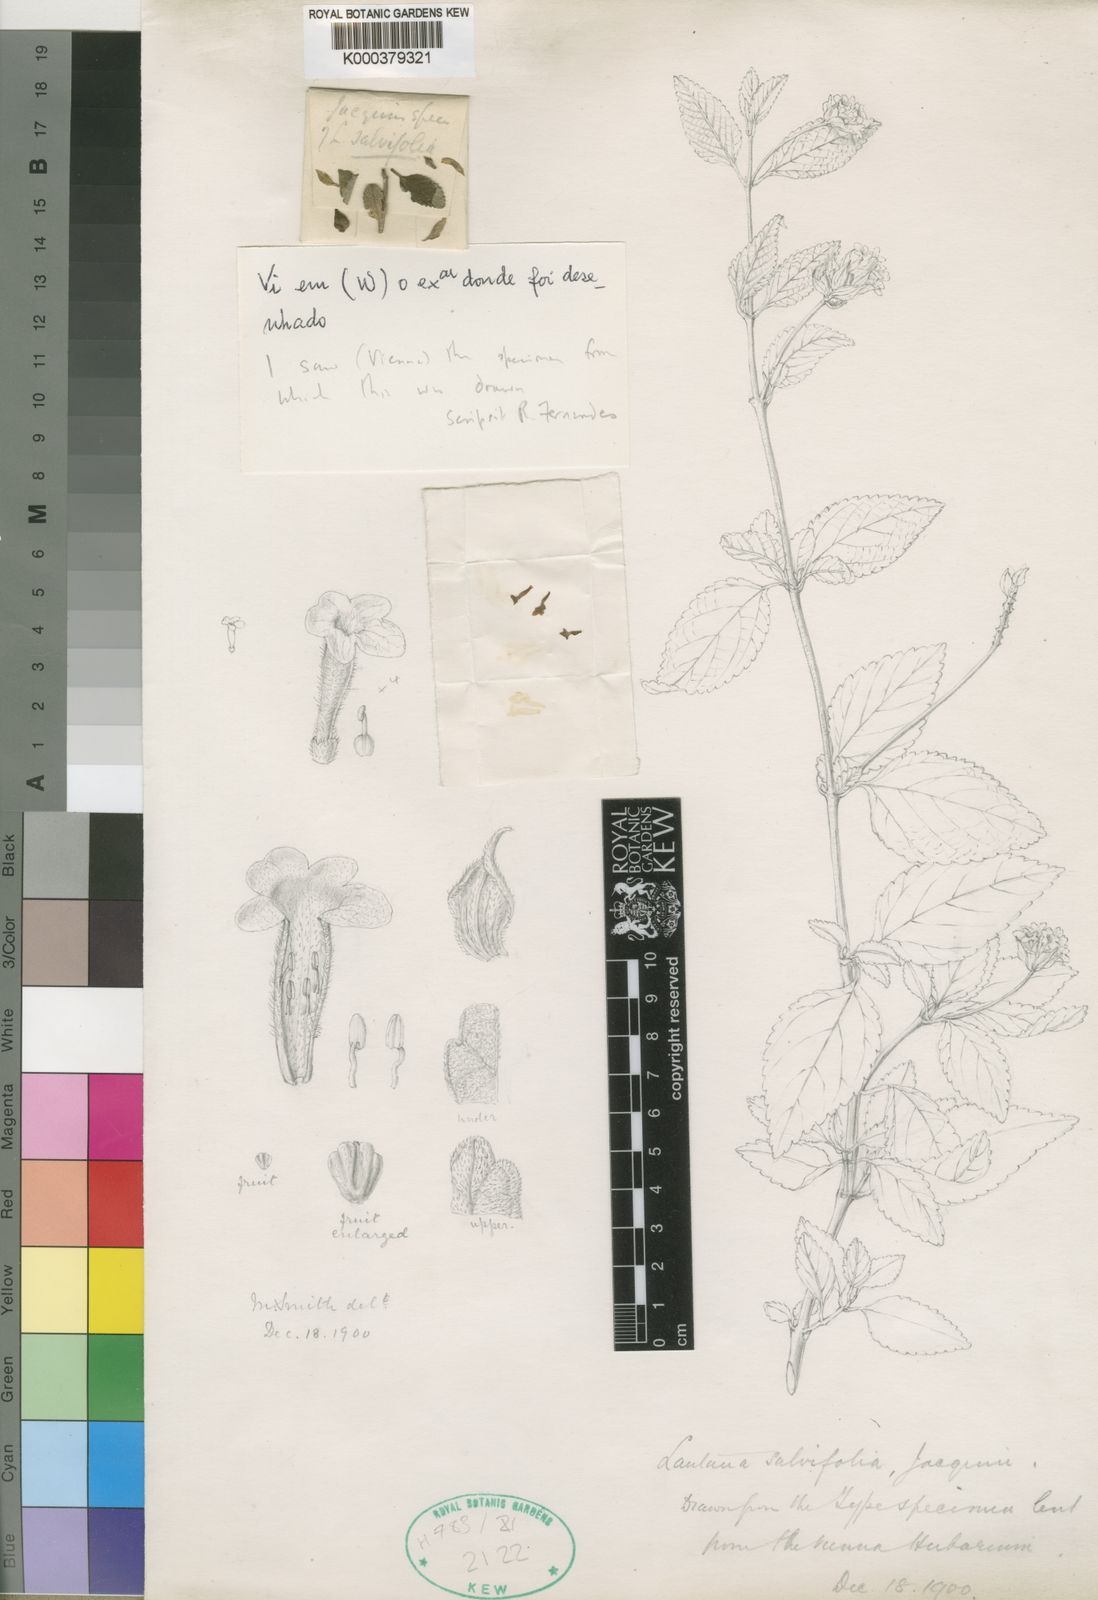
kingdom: Plantae
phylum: Tracheophyta
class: Magnoliopsida
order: Lamiales
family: Verbenaceae
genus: Lantana
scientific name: Lantana rugosa
